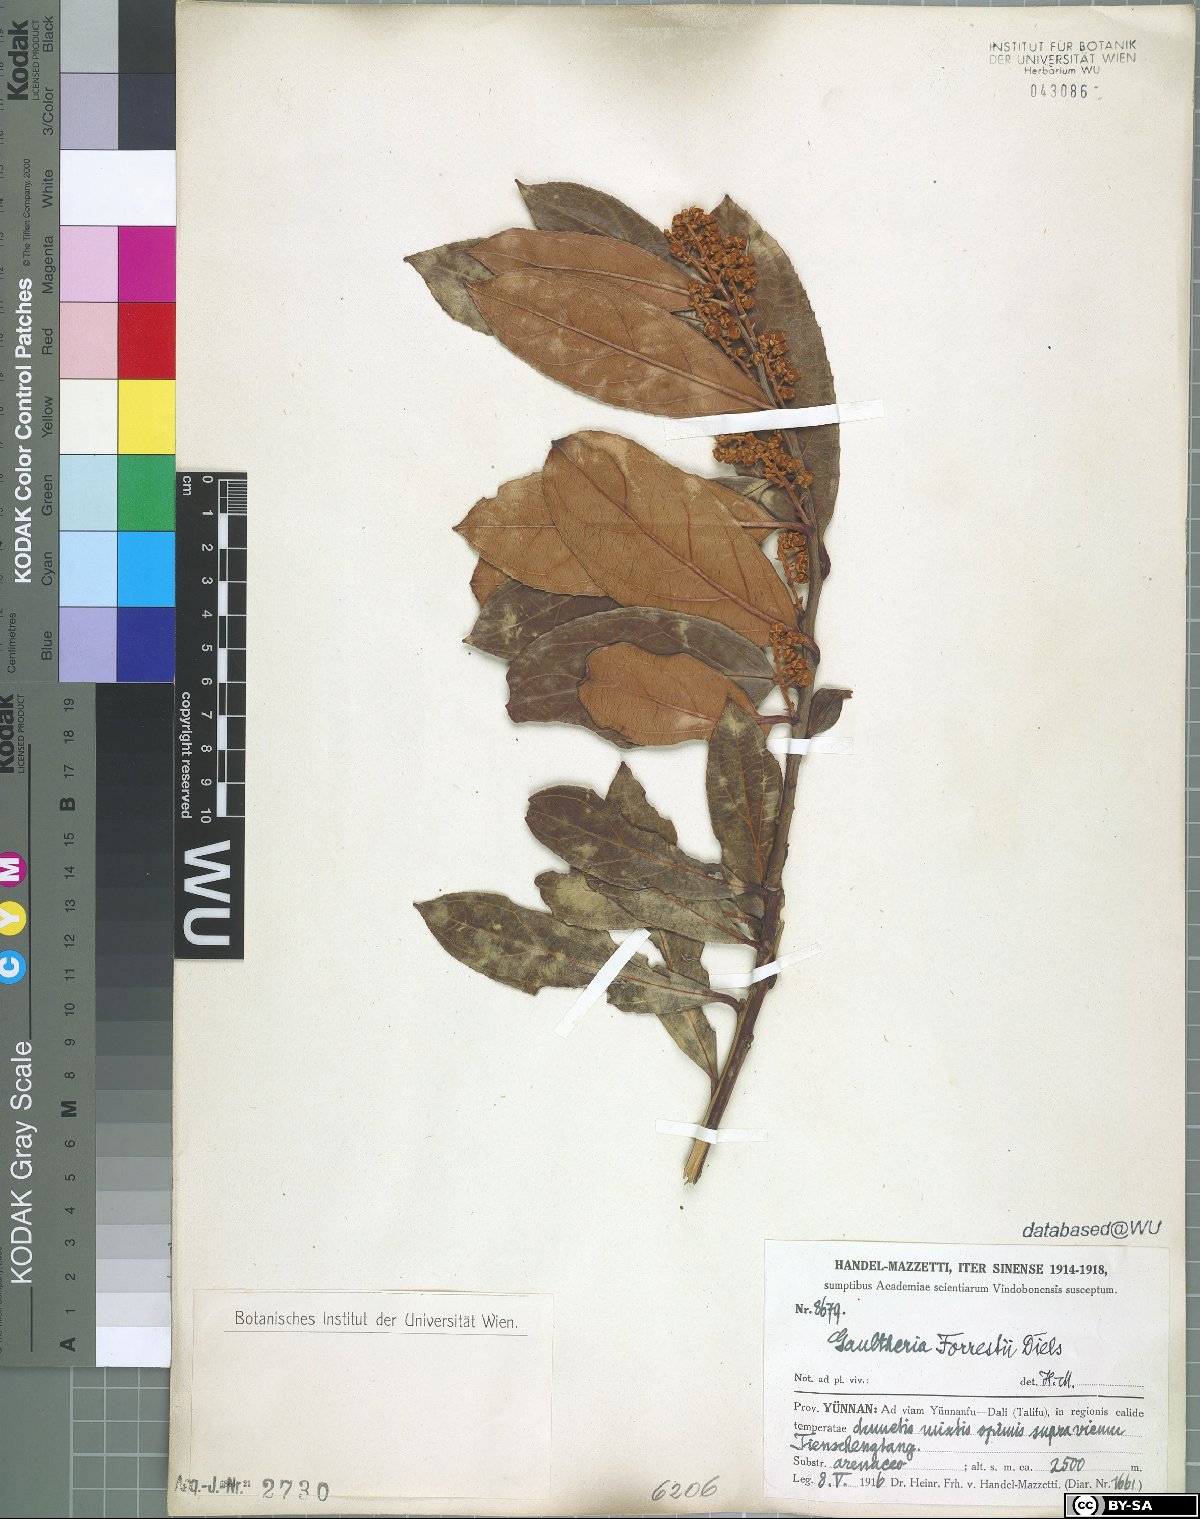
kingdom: Plantae
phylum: Tracheophyta
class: Magnoliopsida
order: Ericales
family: Ericaceae
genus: Gaultheria
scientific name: Gaultheria fragrantissima
